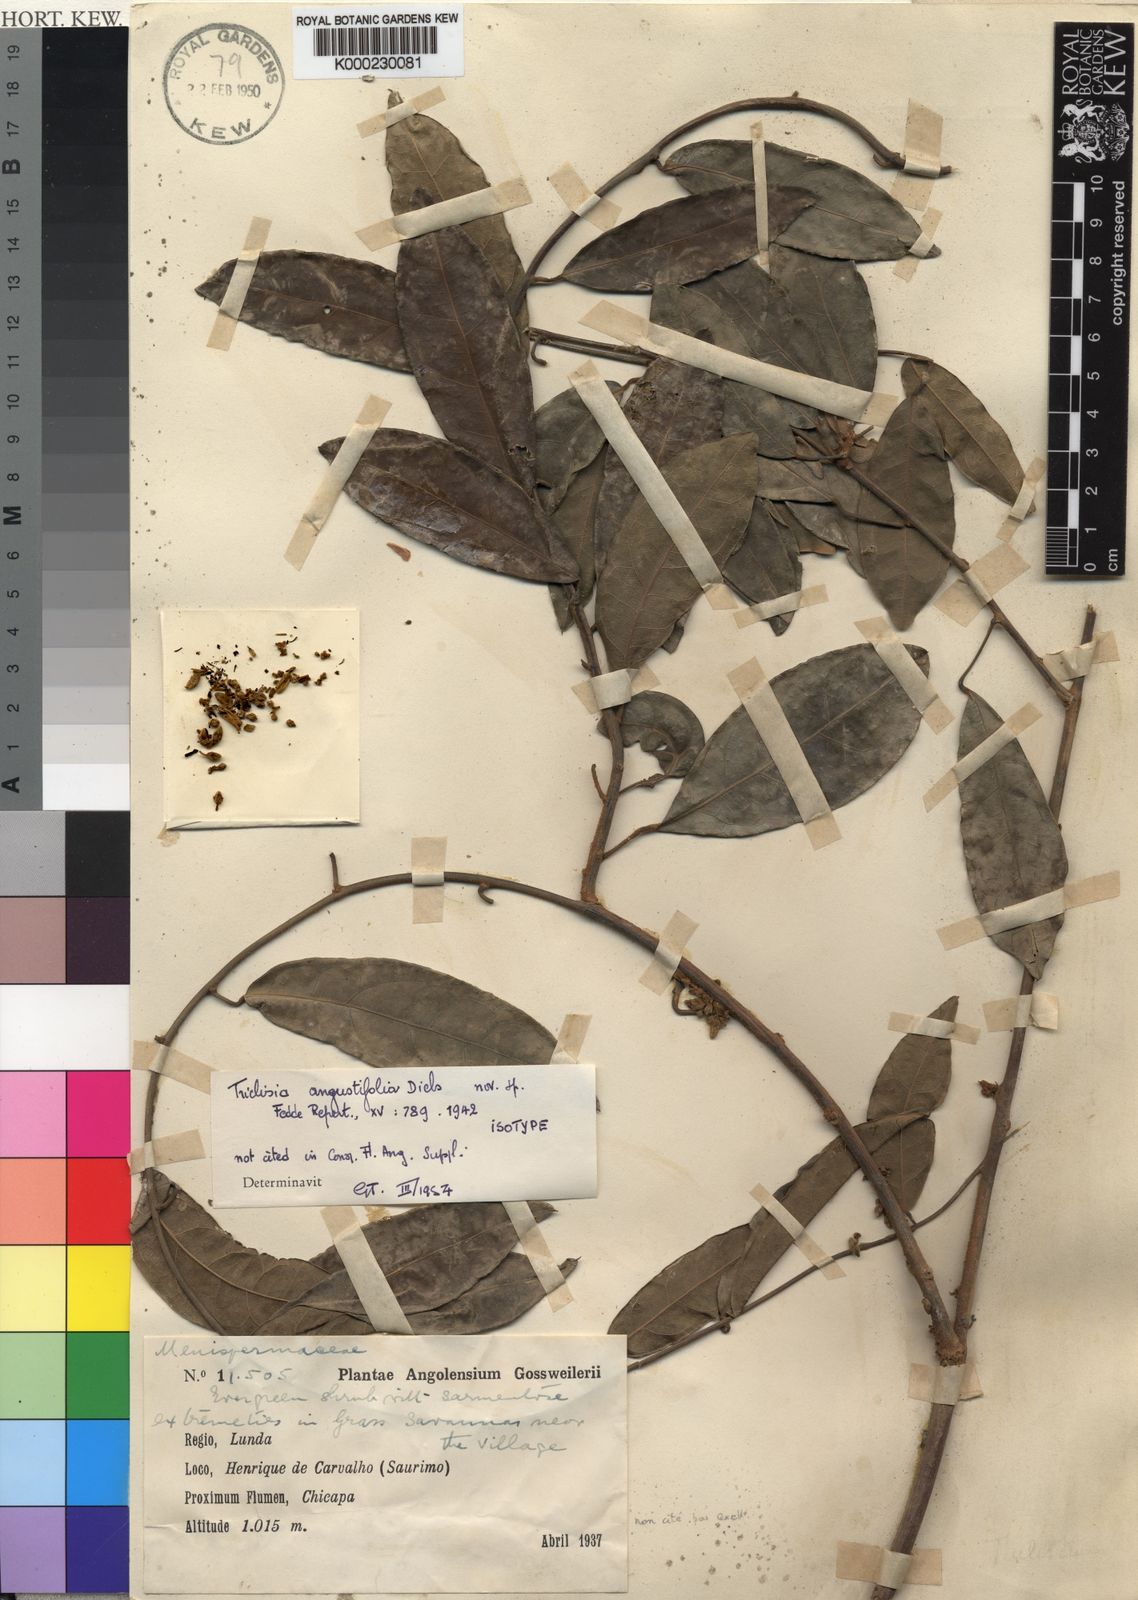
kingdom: Plantae
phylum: Tracheophyta
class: Magnoliopsida
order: Ranunculales
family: Menispermaceae
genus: Triclisia
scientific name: Triclisia angustifolia
